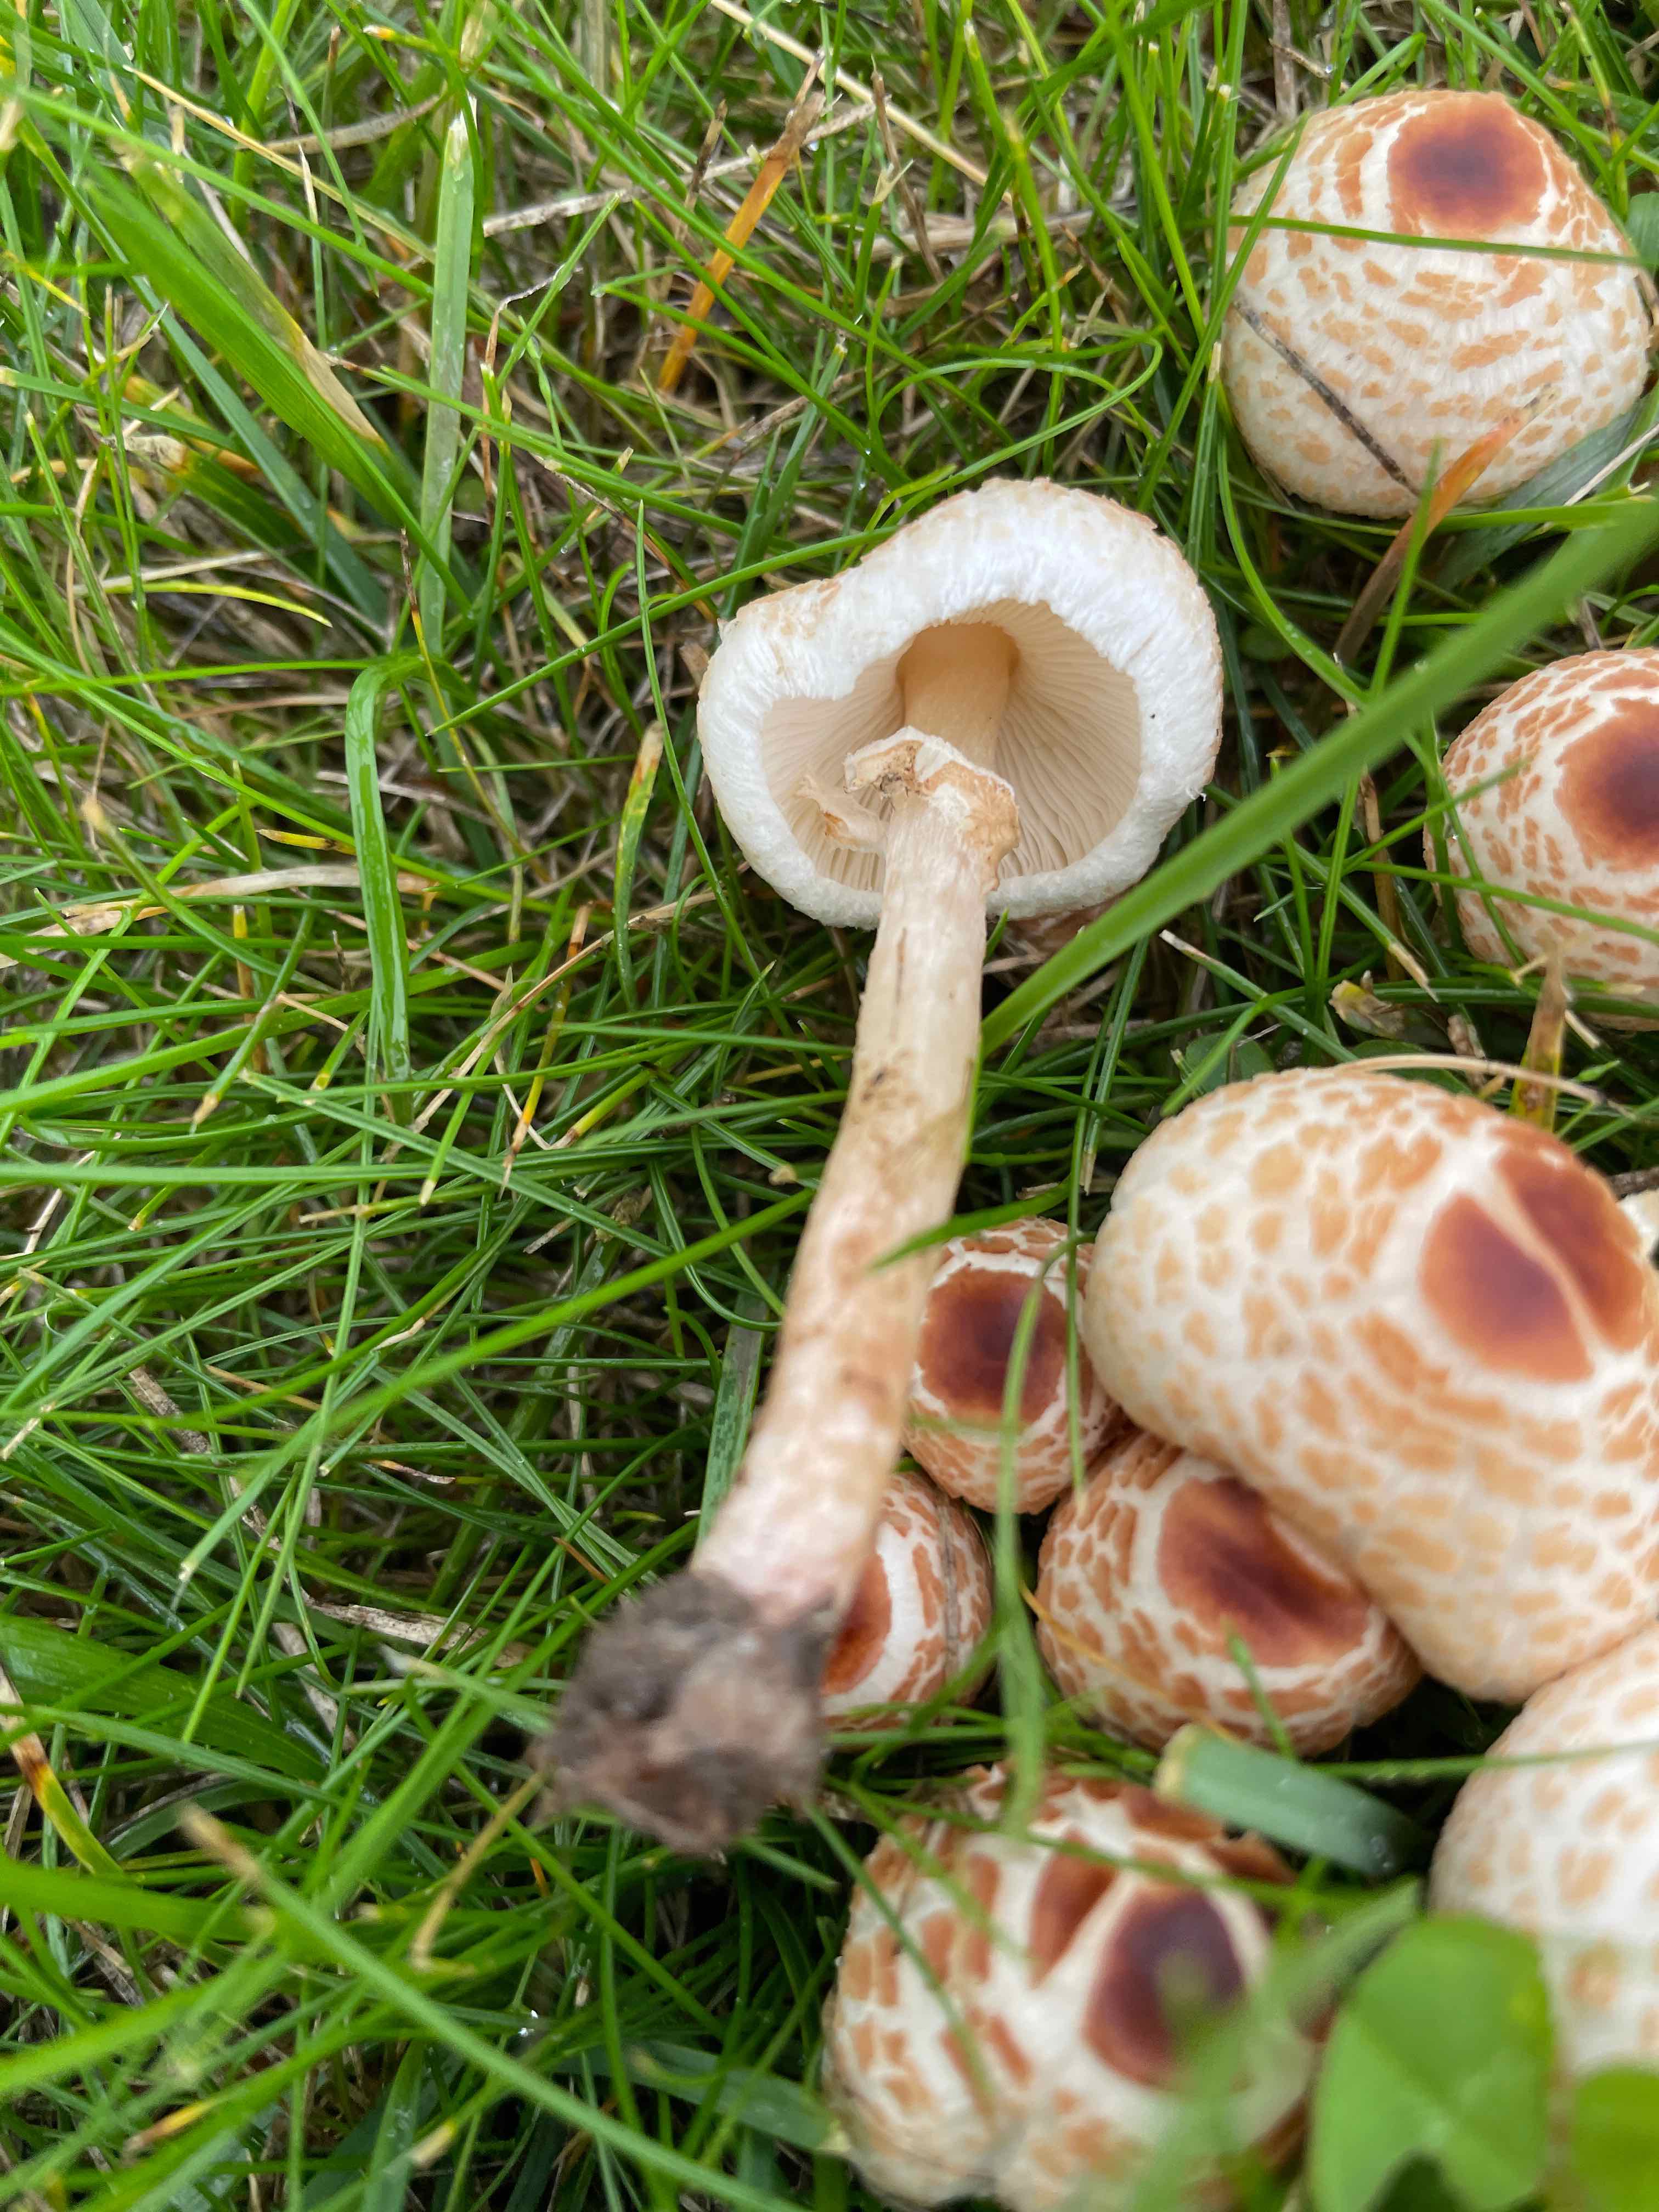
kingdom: Fungi
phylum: Basidiomycota
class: Agaricomycetes
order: Agaricales
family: Agaricaceae
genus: Lepiota
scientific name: Lepiota cristata
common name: stinkende parasolhat
